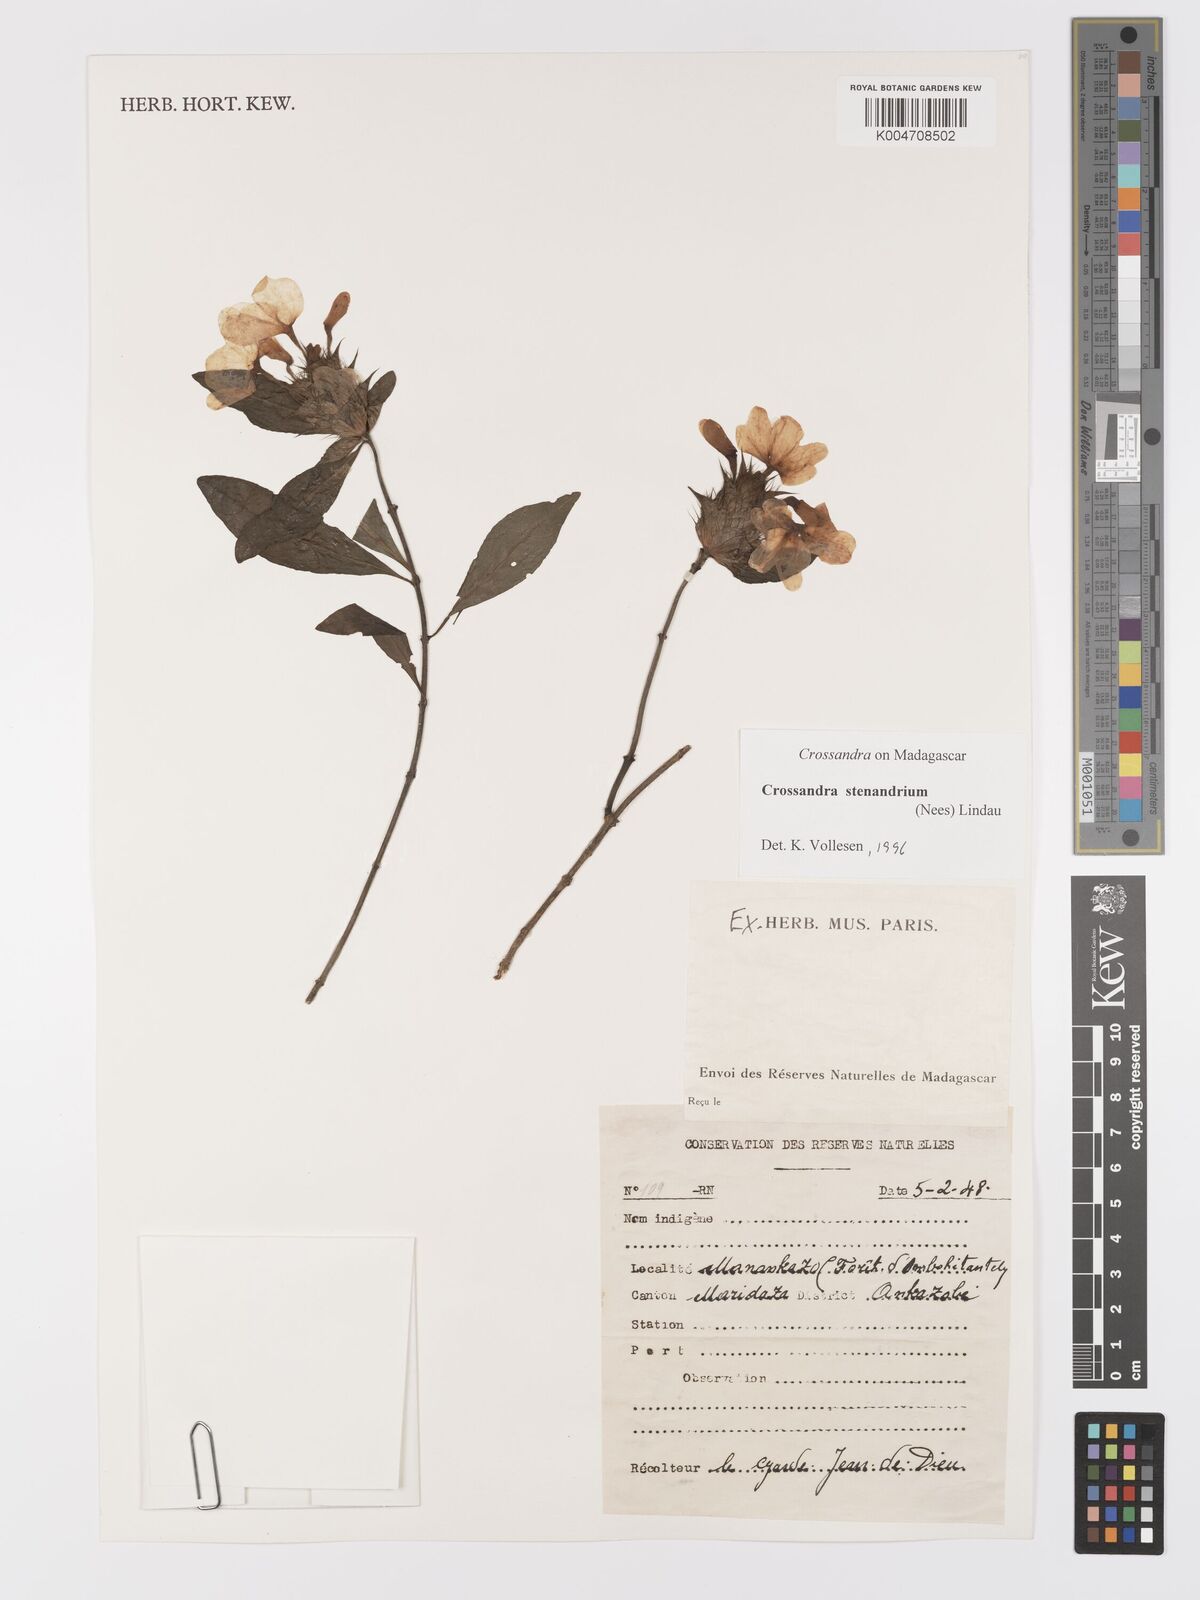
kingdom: Plantae
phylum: Tracheophyta
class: Magnoliopsida
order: Lamiales
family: Acanthaceae
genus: Crossandra
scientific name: Crossandra stenandrium
